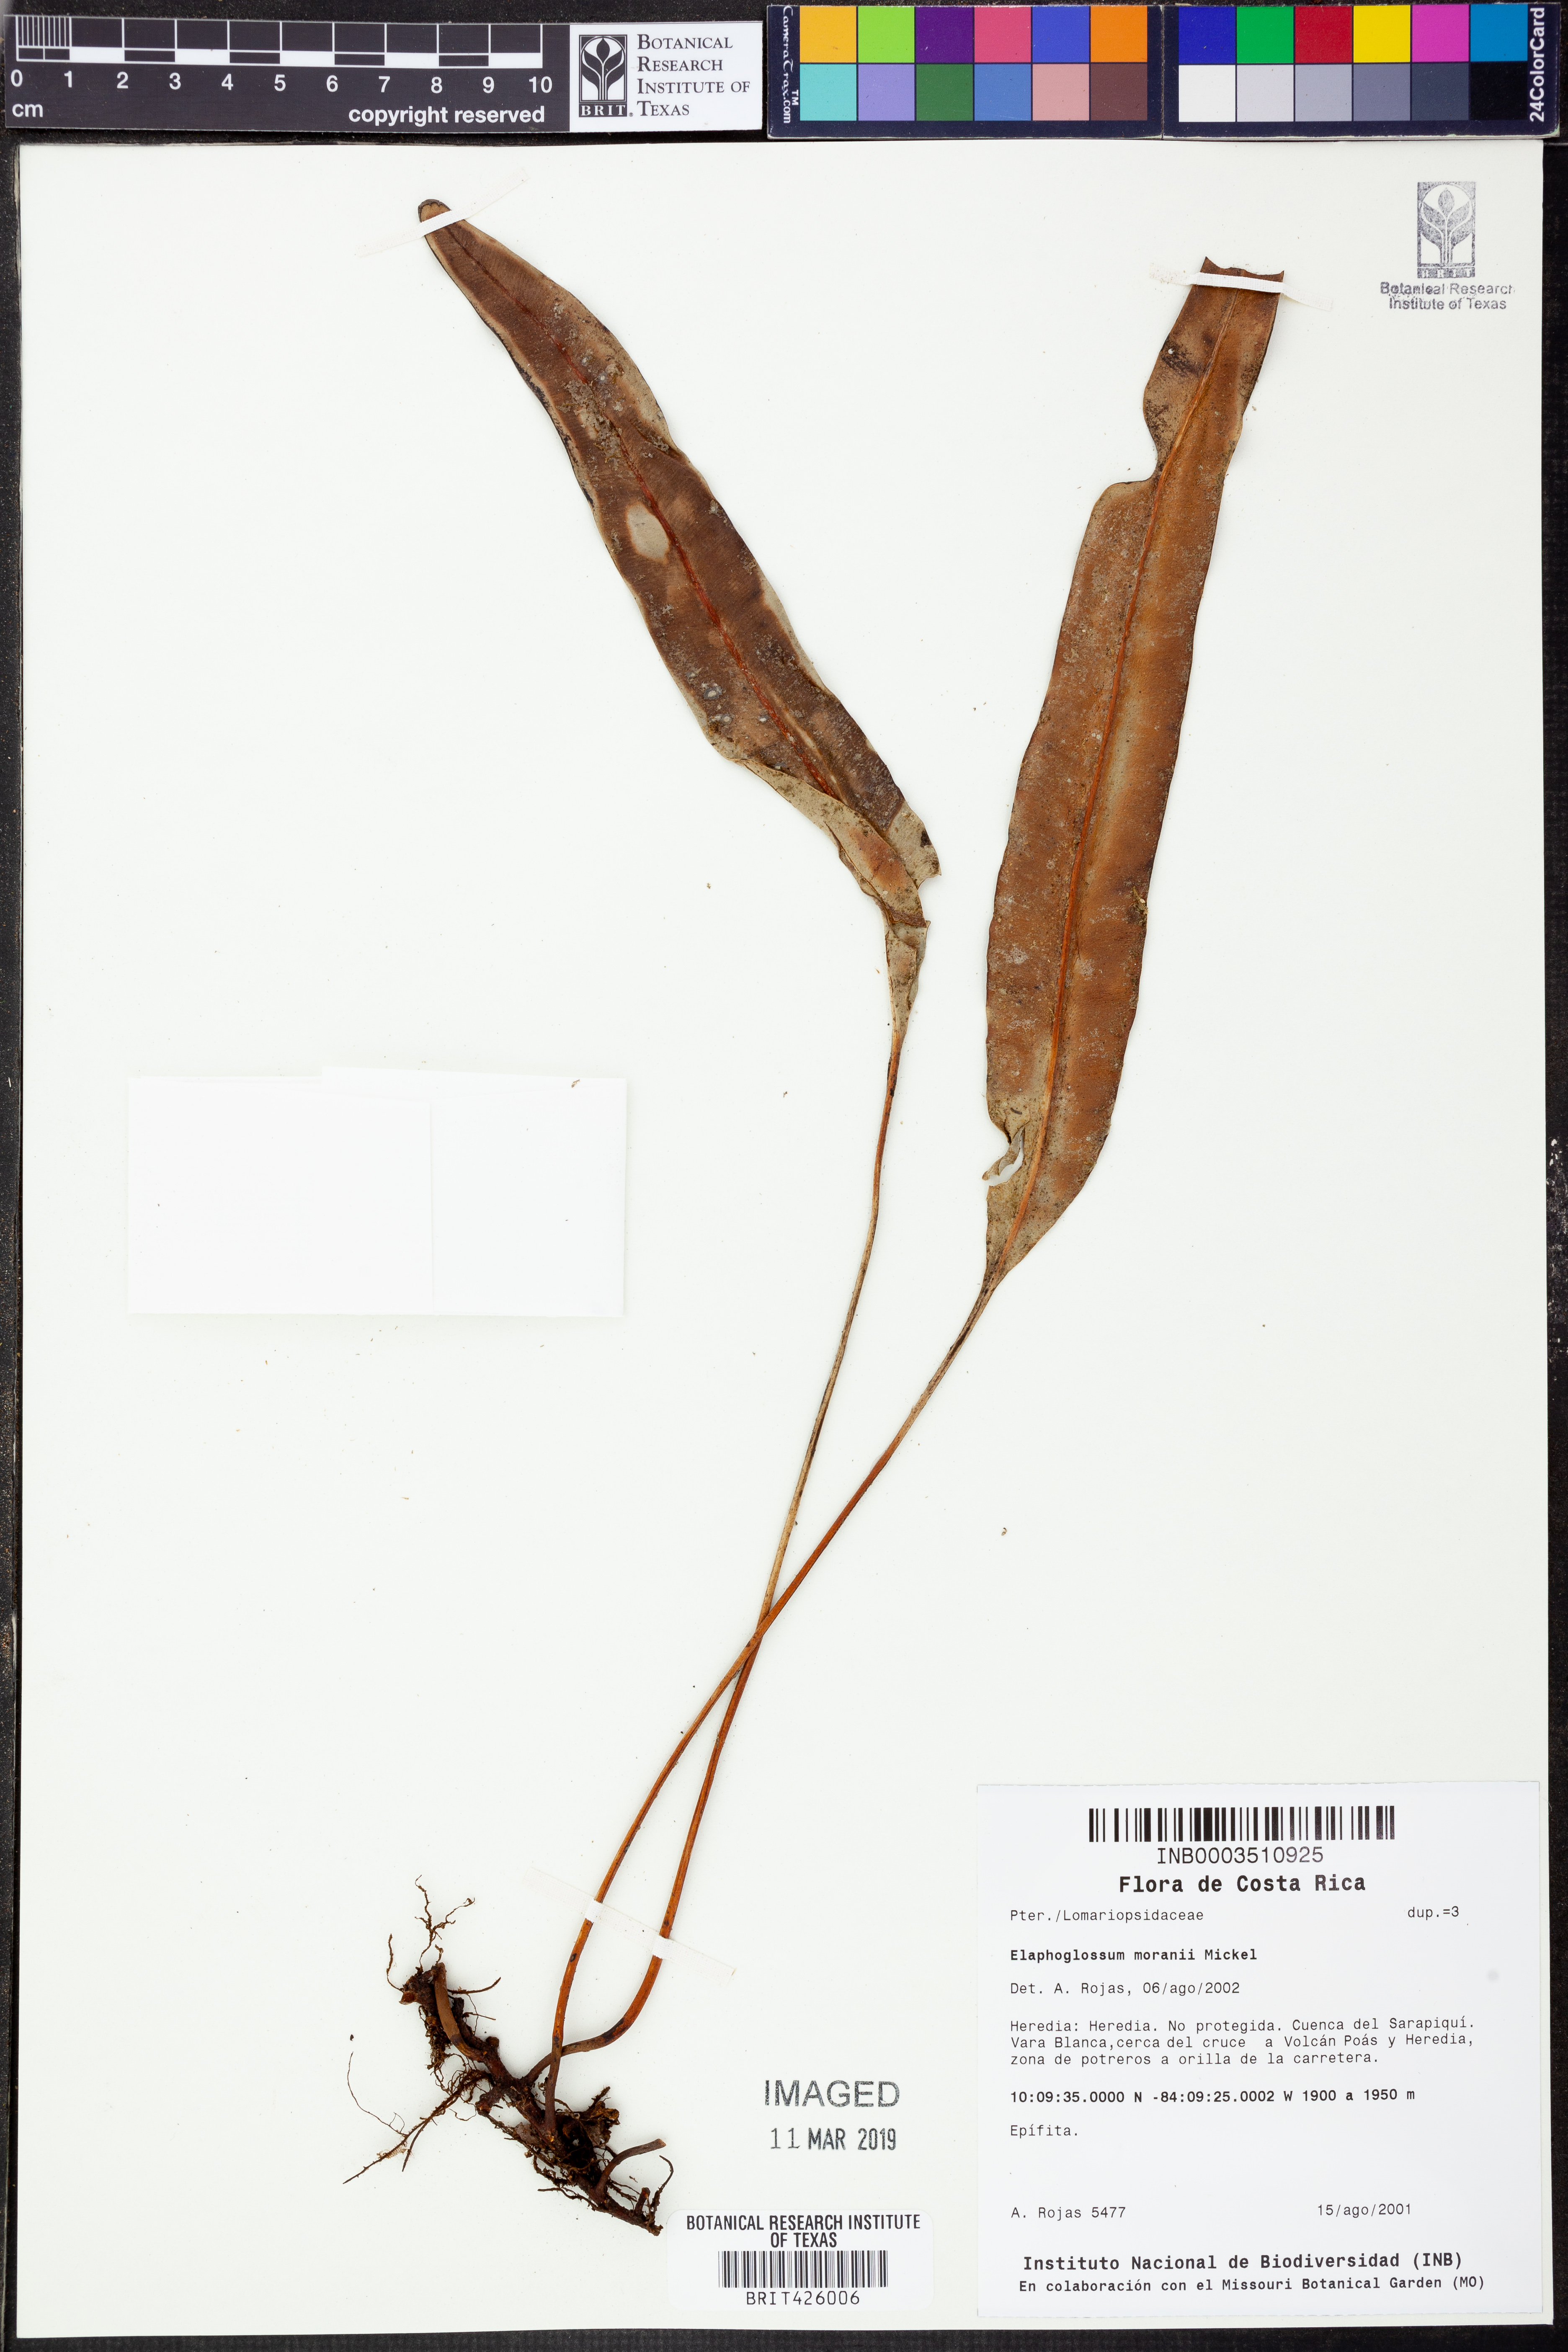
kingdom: Plantae
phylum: Tracheophyta
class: Polypodiopsida
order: Polypodiales
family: Dryopteridaceae
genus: Elaphoglossum
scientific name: Elaphoglossum moranii
